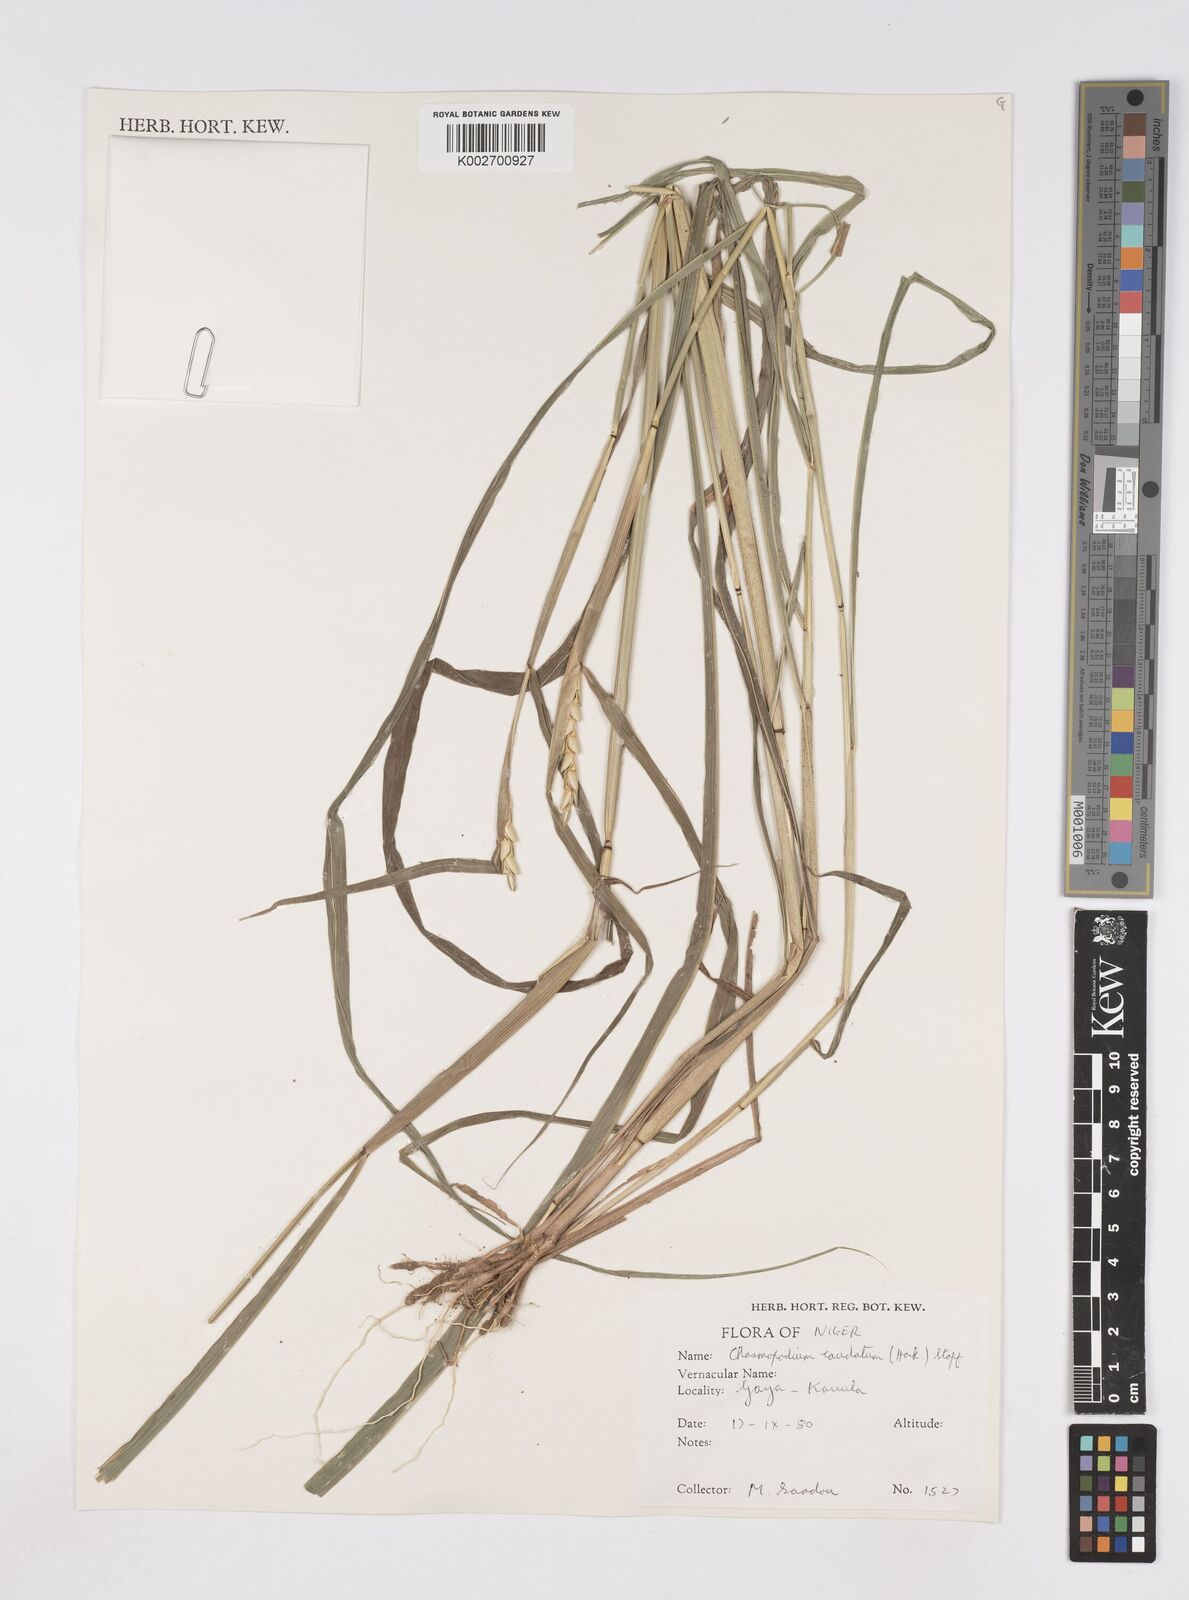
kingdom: Plantae
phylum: Tracheophyta
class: Liliopsida
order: Poales
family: Poaceae
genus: Chasmopodium
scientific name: Chasmopodium caudatum
